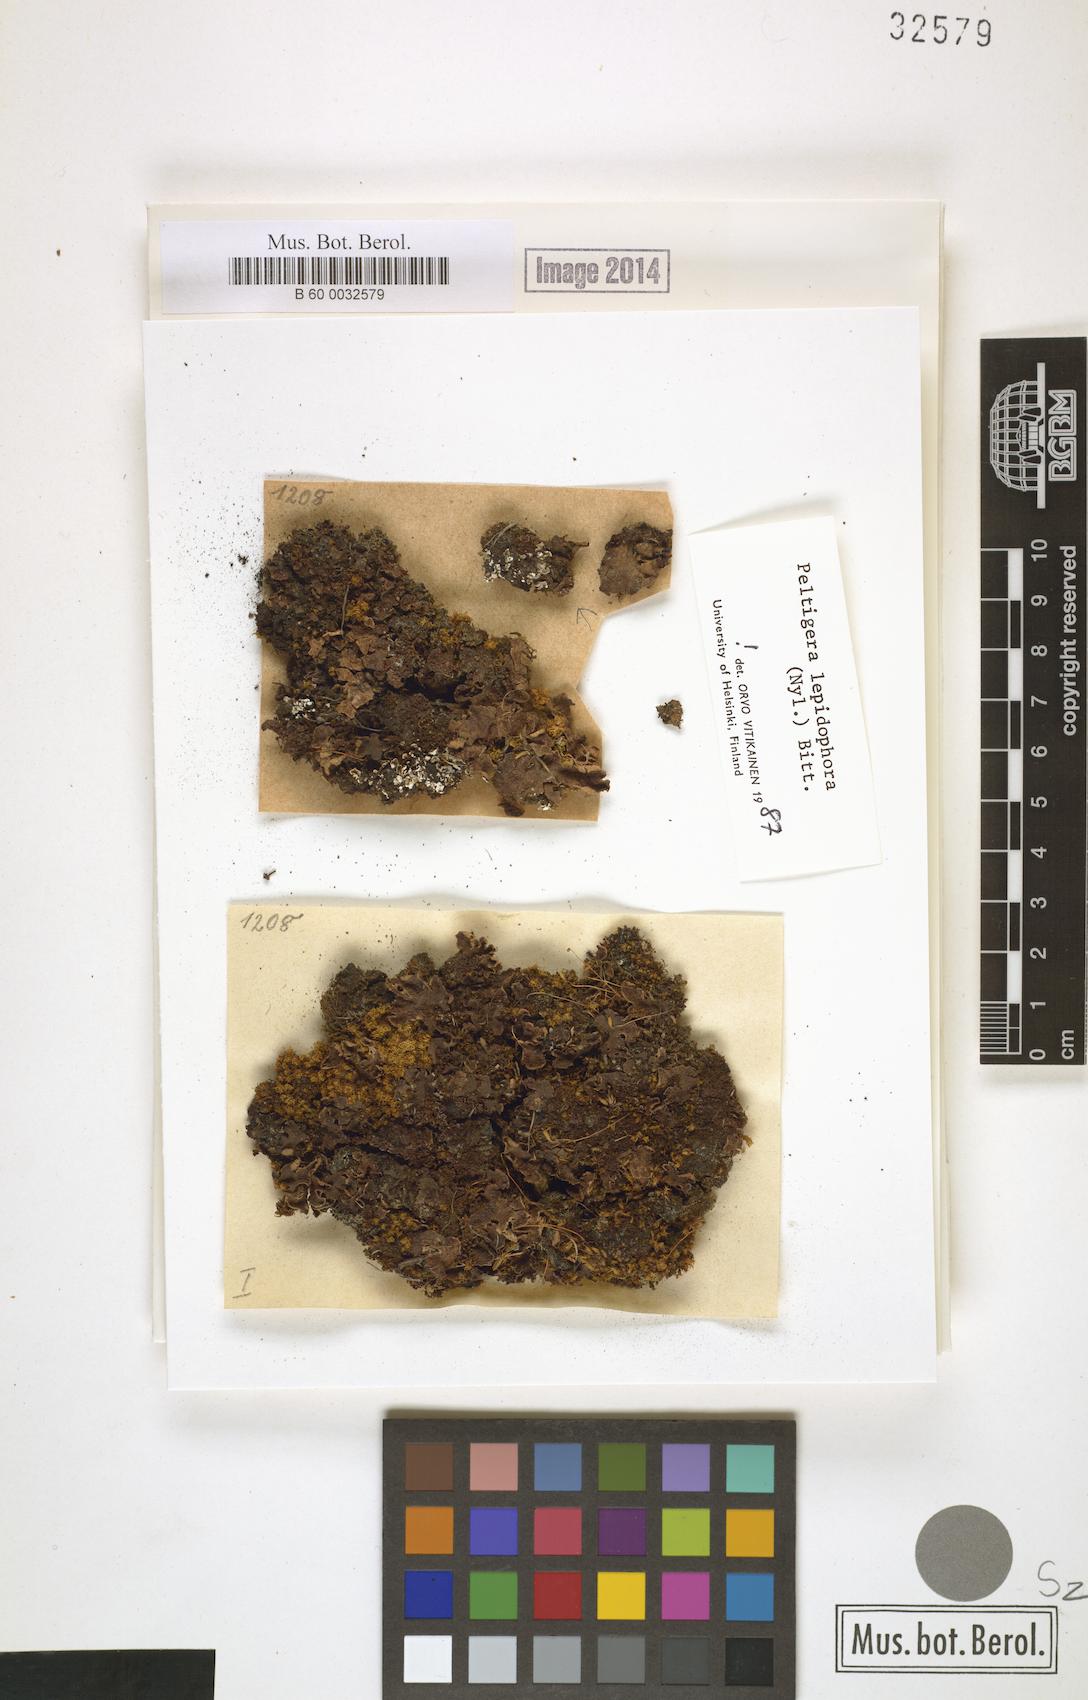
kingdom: Fungi
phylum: Ascomycota
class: Lecanoromycetes
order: Peltigerales
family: Peltigeraceae
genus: Peltigera
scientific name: Peltigera lepidophora
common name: Ear-lobed dog-lichen
